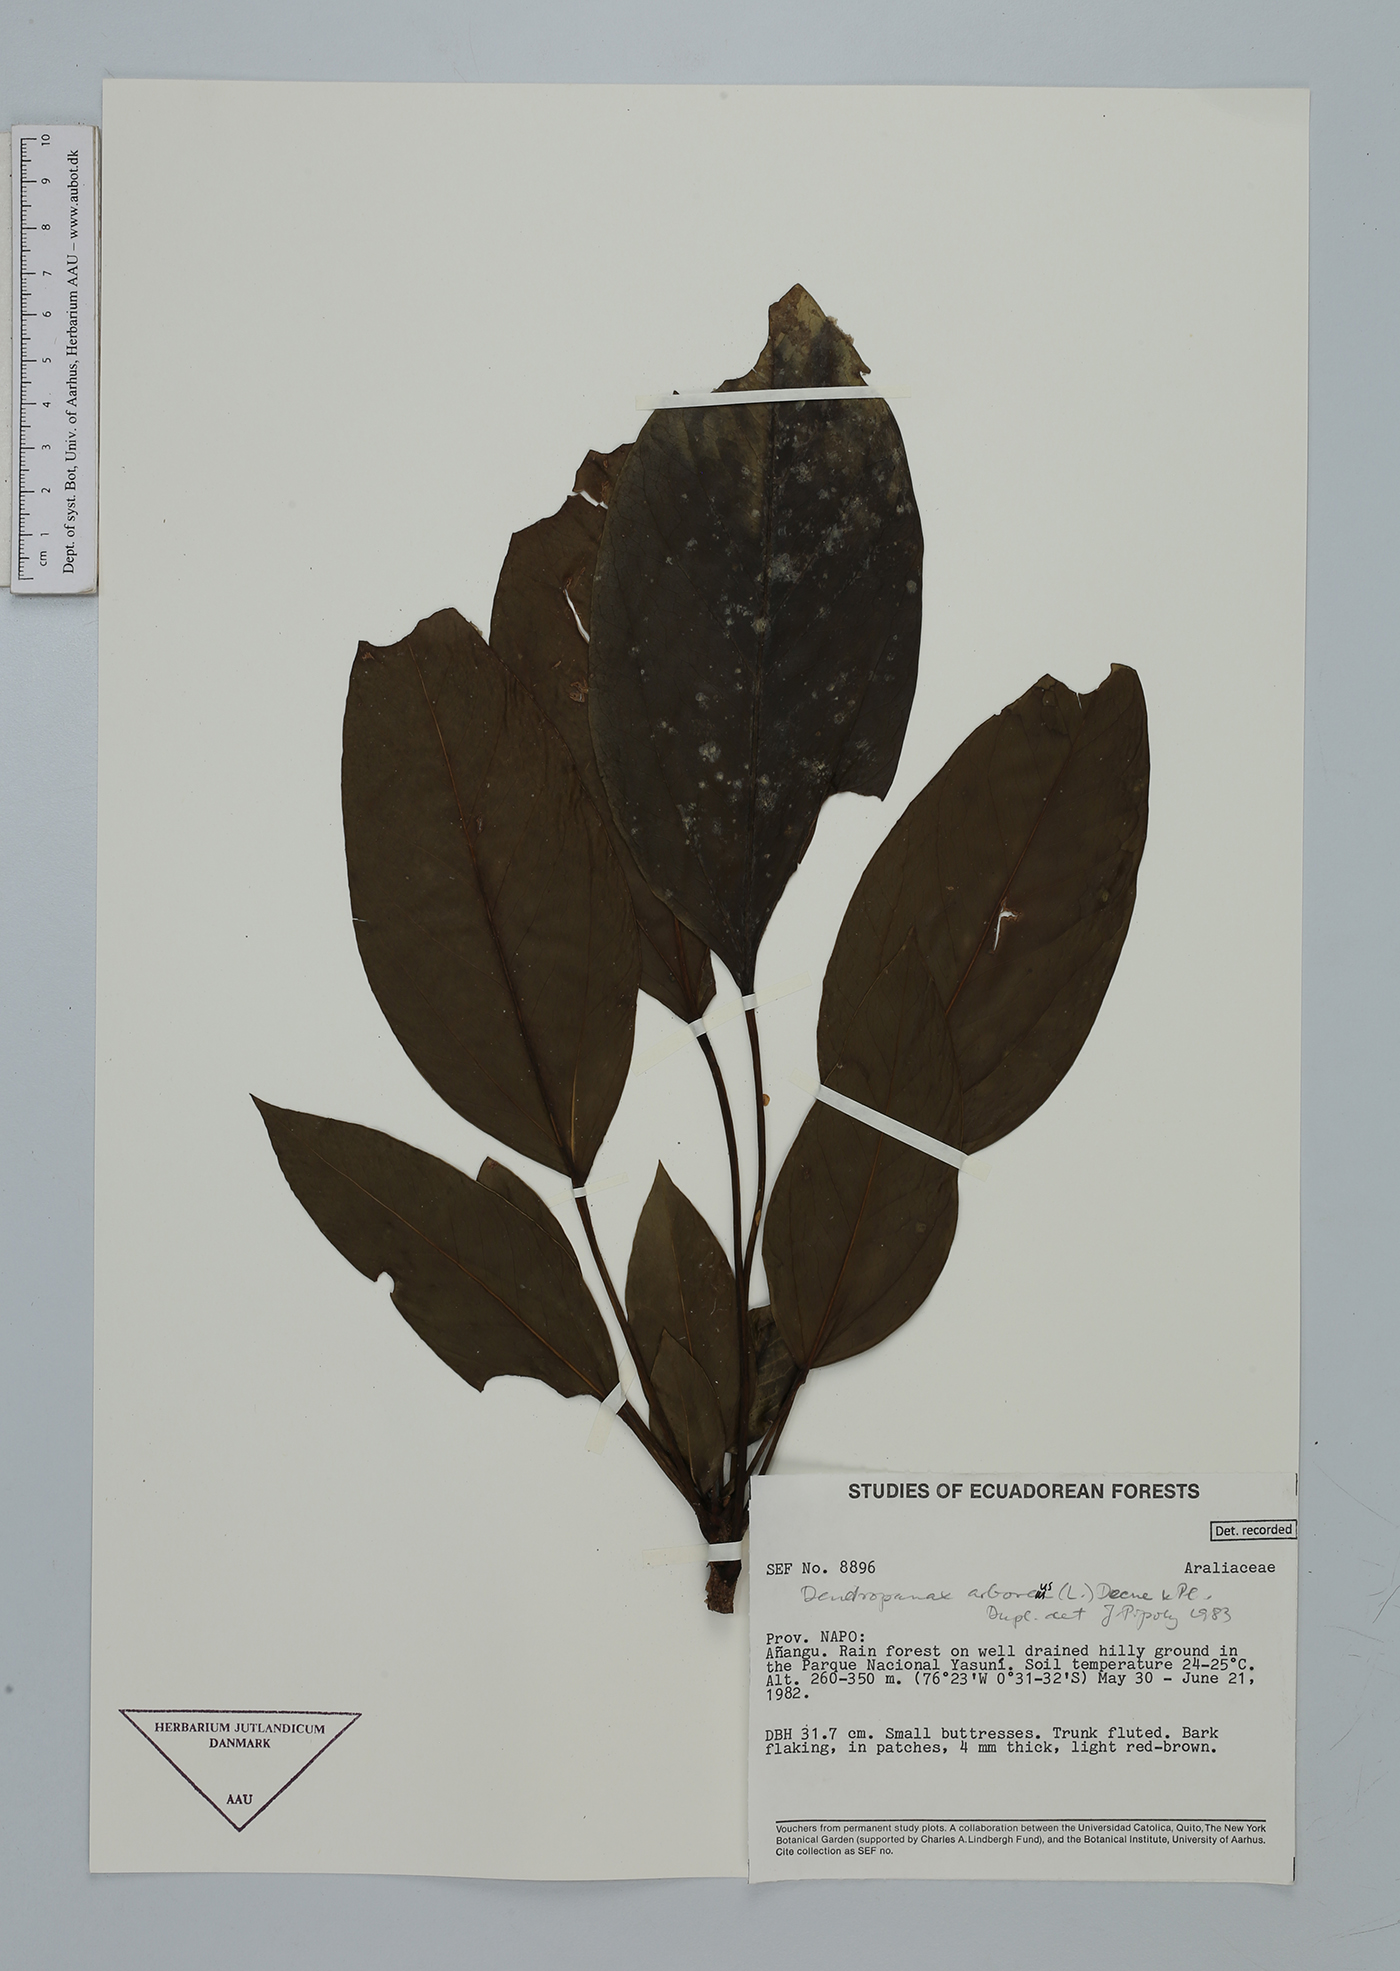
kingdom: Plantae
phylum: Tracheophyta
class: Magnoliopsida
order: Apiales
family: Araliaceae
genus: Dendropanax
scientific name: Dendropanax arboreus
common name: Potato-wood
